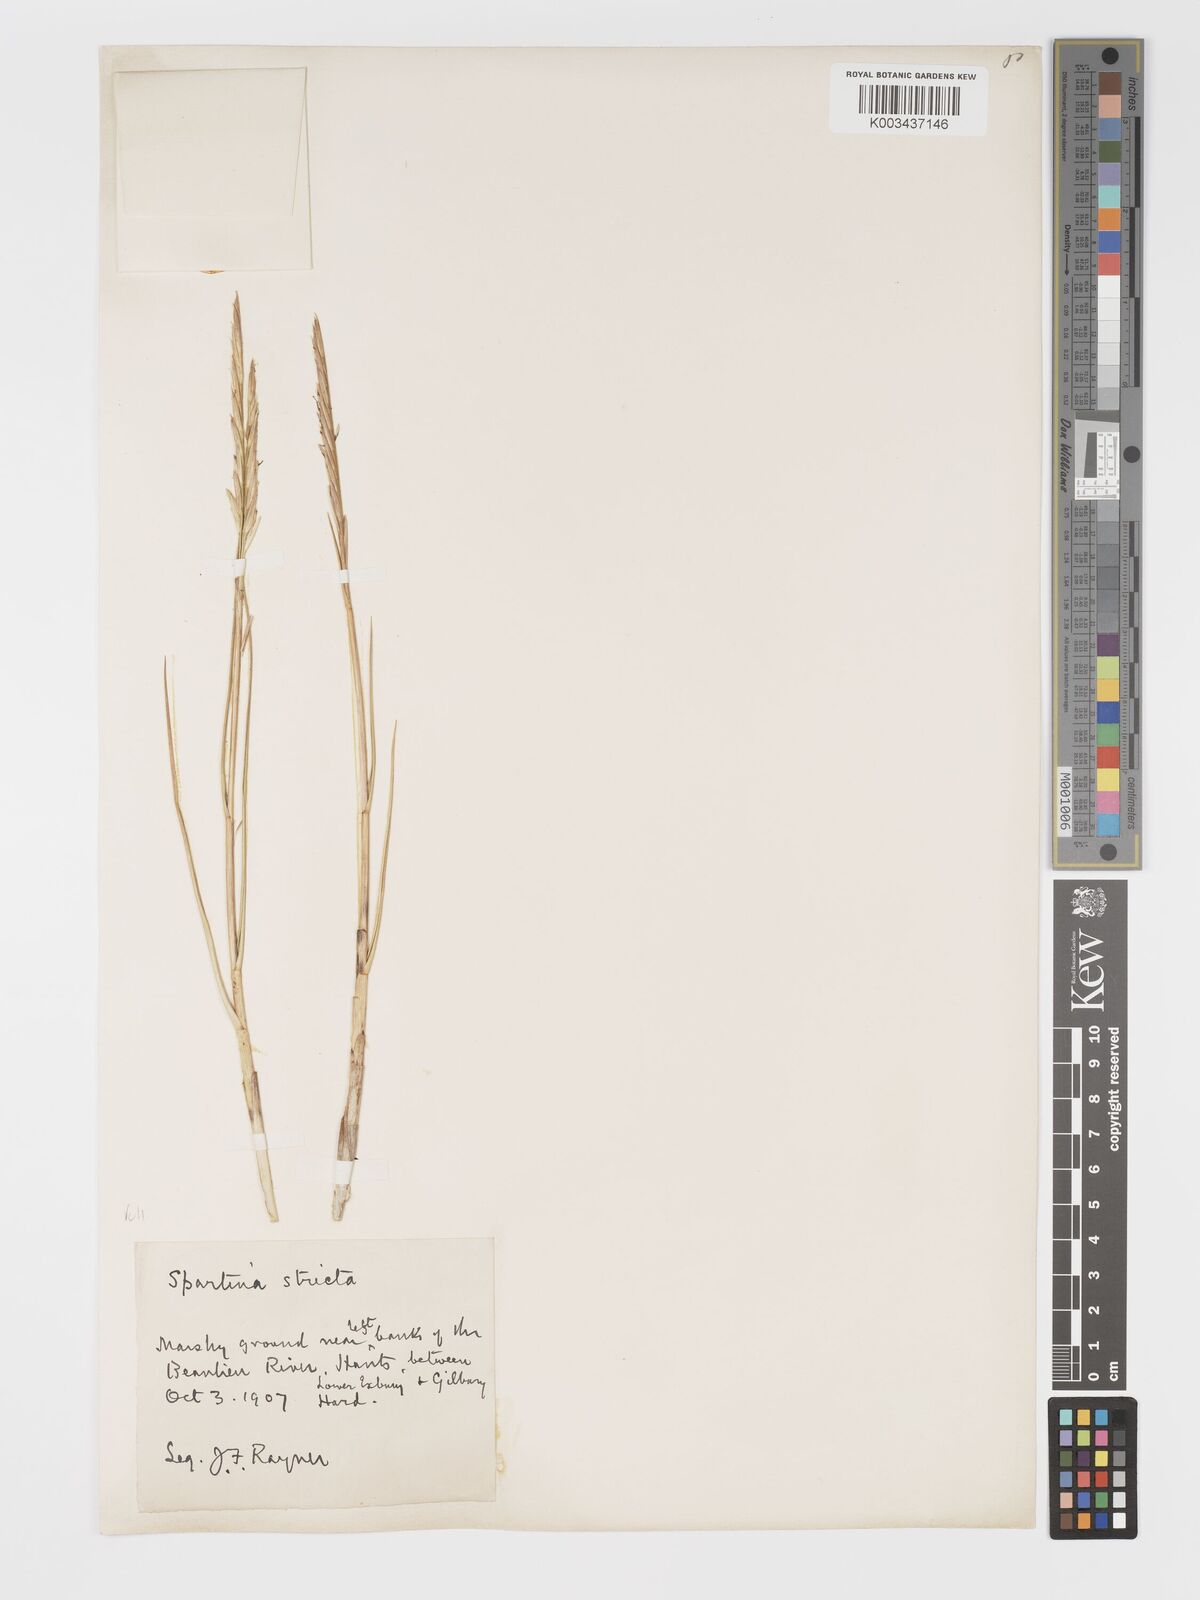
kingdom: Plantae
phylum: Tracheophyta
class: Liliopsida
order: Poales
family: Poaceae
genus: Sporobolus
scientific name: Sporobolus maritimus
